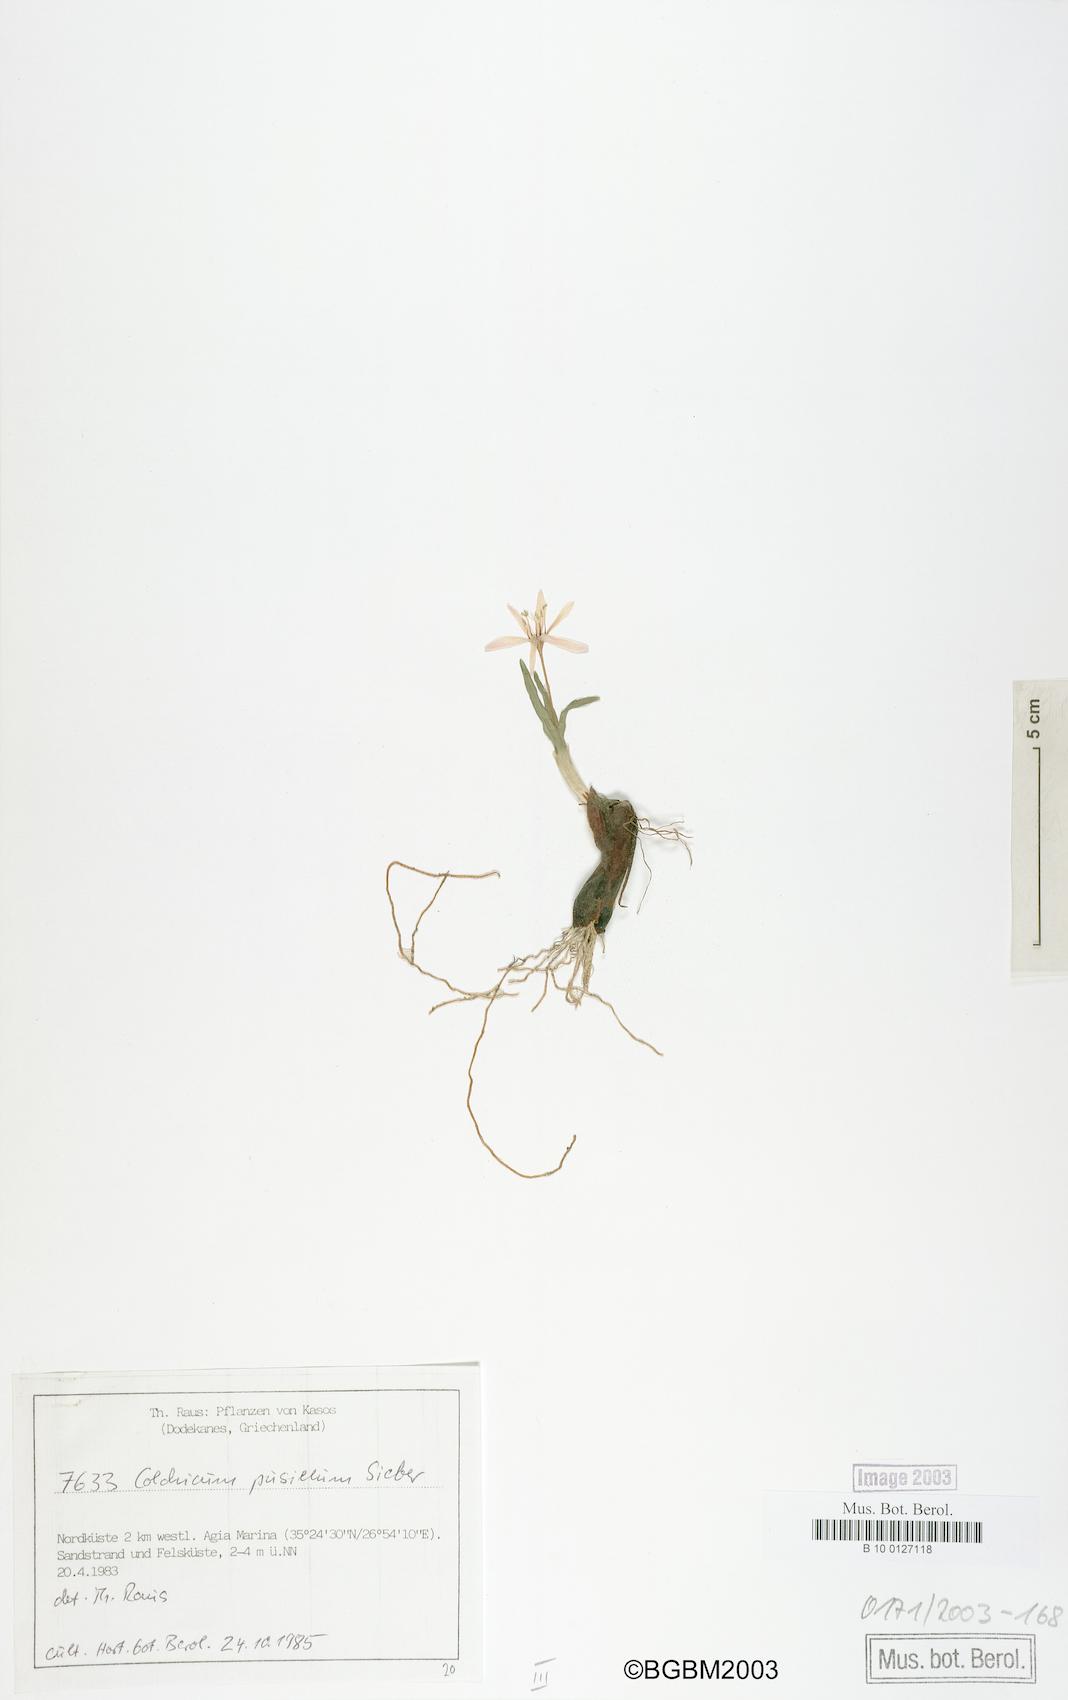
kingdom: Plantae
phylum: Tracheophyta
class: Liliopsida
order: Liliales
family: Colchicaceae
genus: Colchicum
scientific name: Colchicum pusillum
